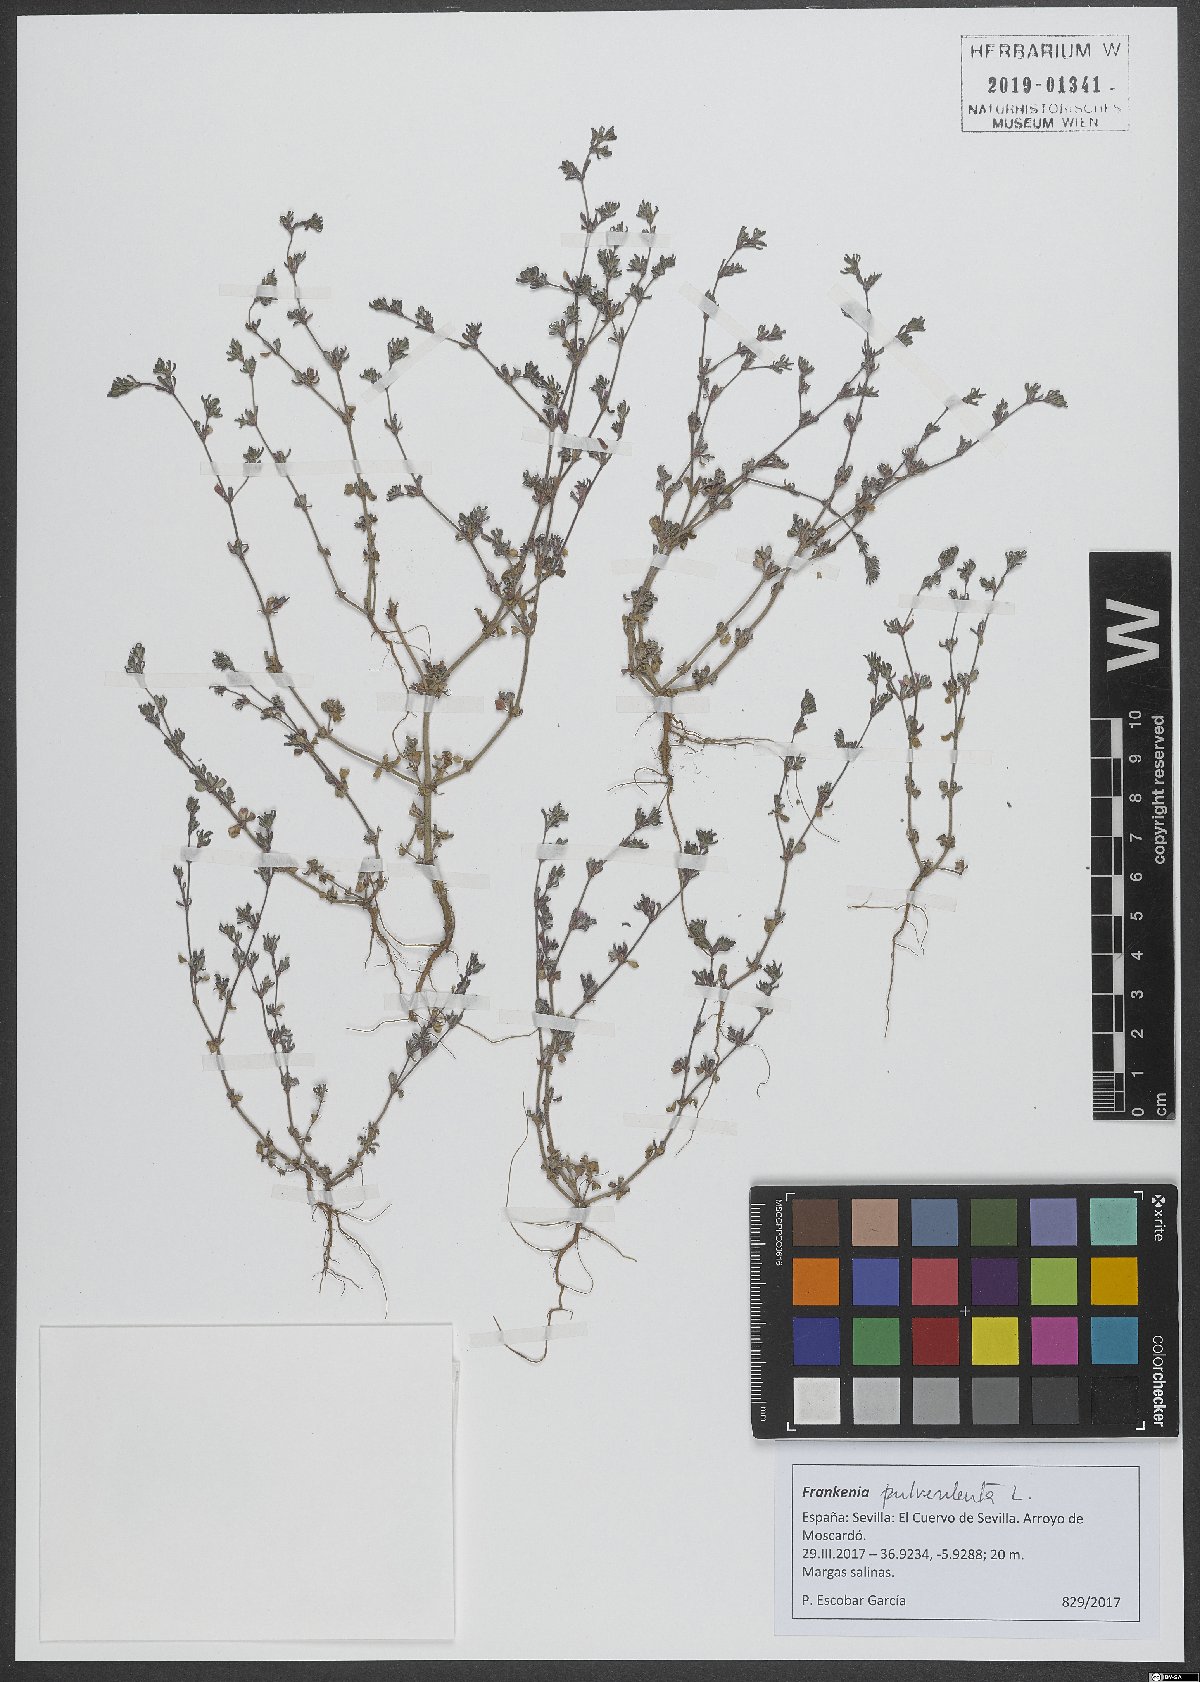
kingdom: Plantae
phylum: Tracheophyta
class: Magnoliopsida
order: Caryophyllales
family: Frankeniaceae
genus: Frankenia
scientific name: Frankenia pulverulenta
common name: European seaheath
